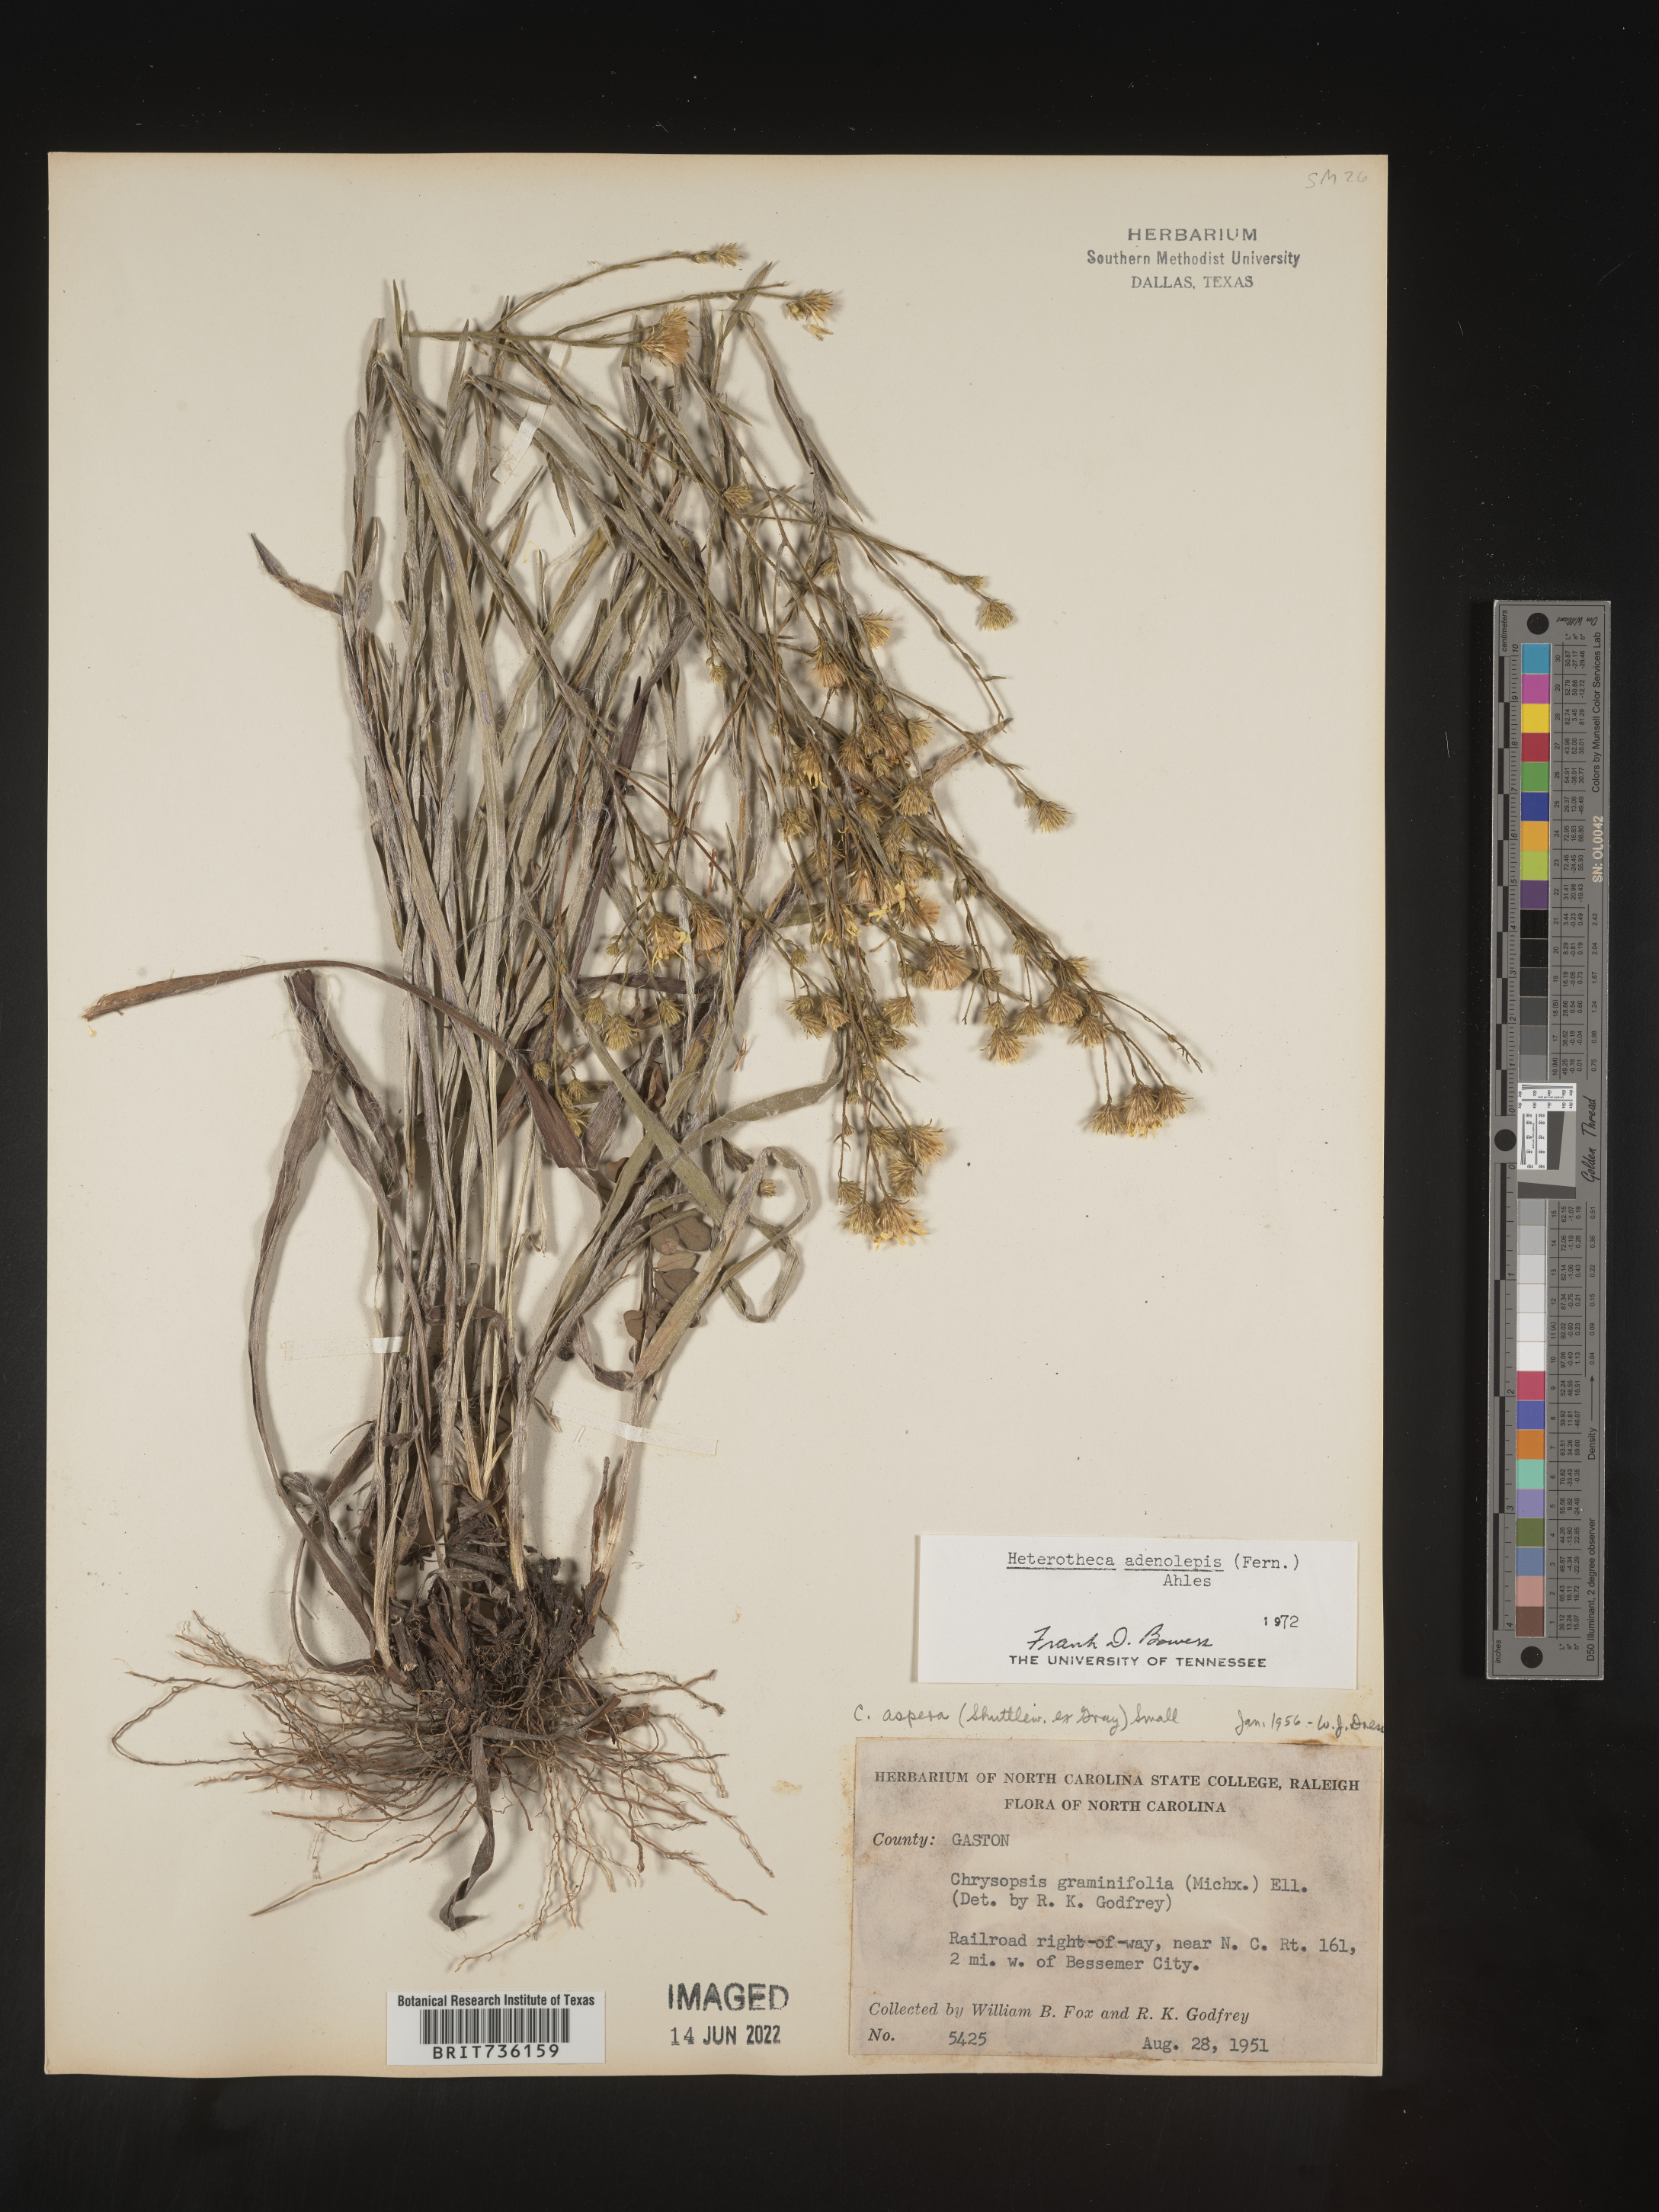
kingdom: Plantae
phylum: Tracheophyta
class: Magnoliopsida
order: Asterales
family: Asteraceae
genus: Pityopsis
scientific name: Pityopsis aspera
